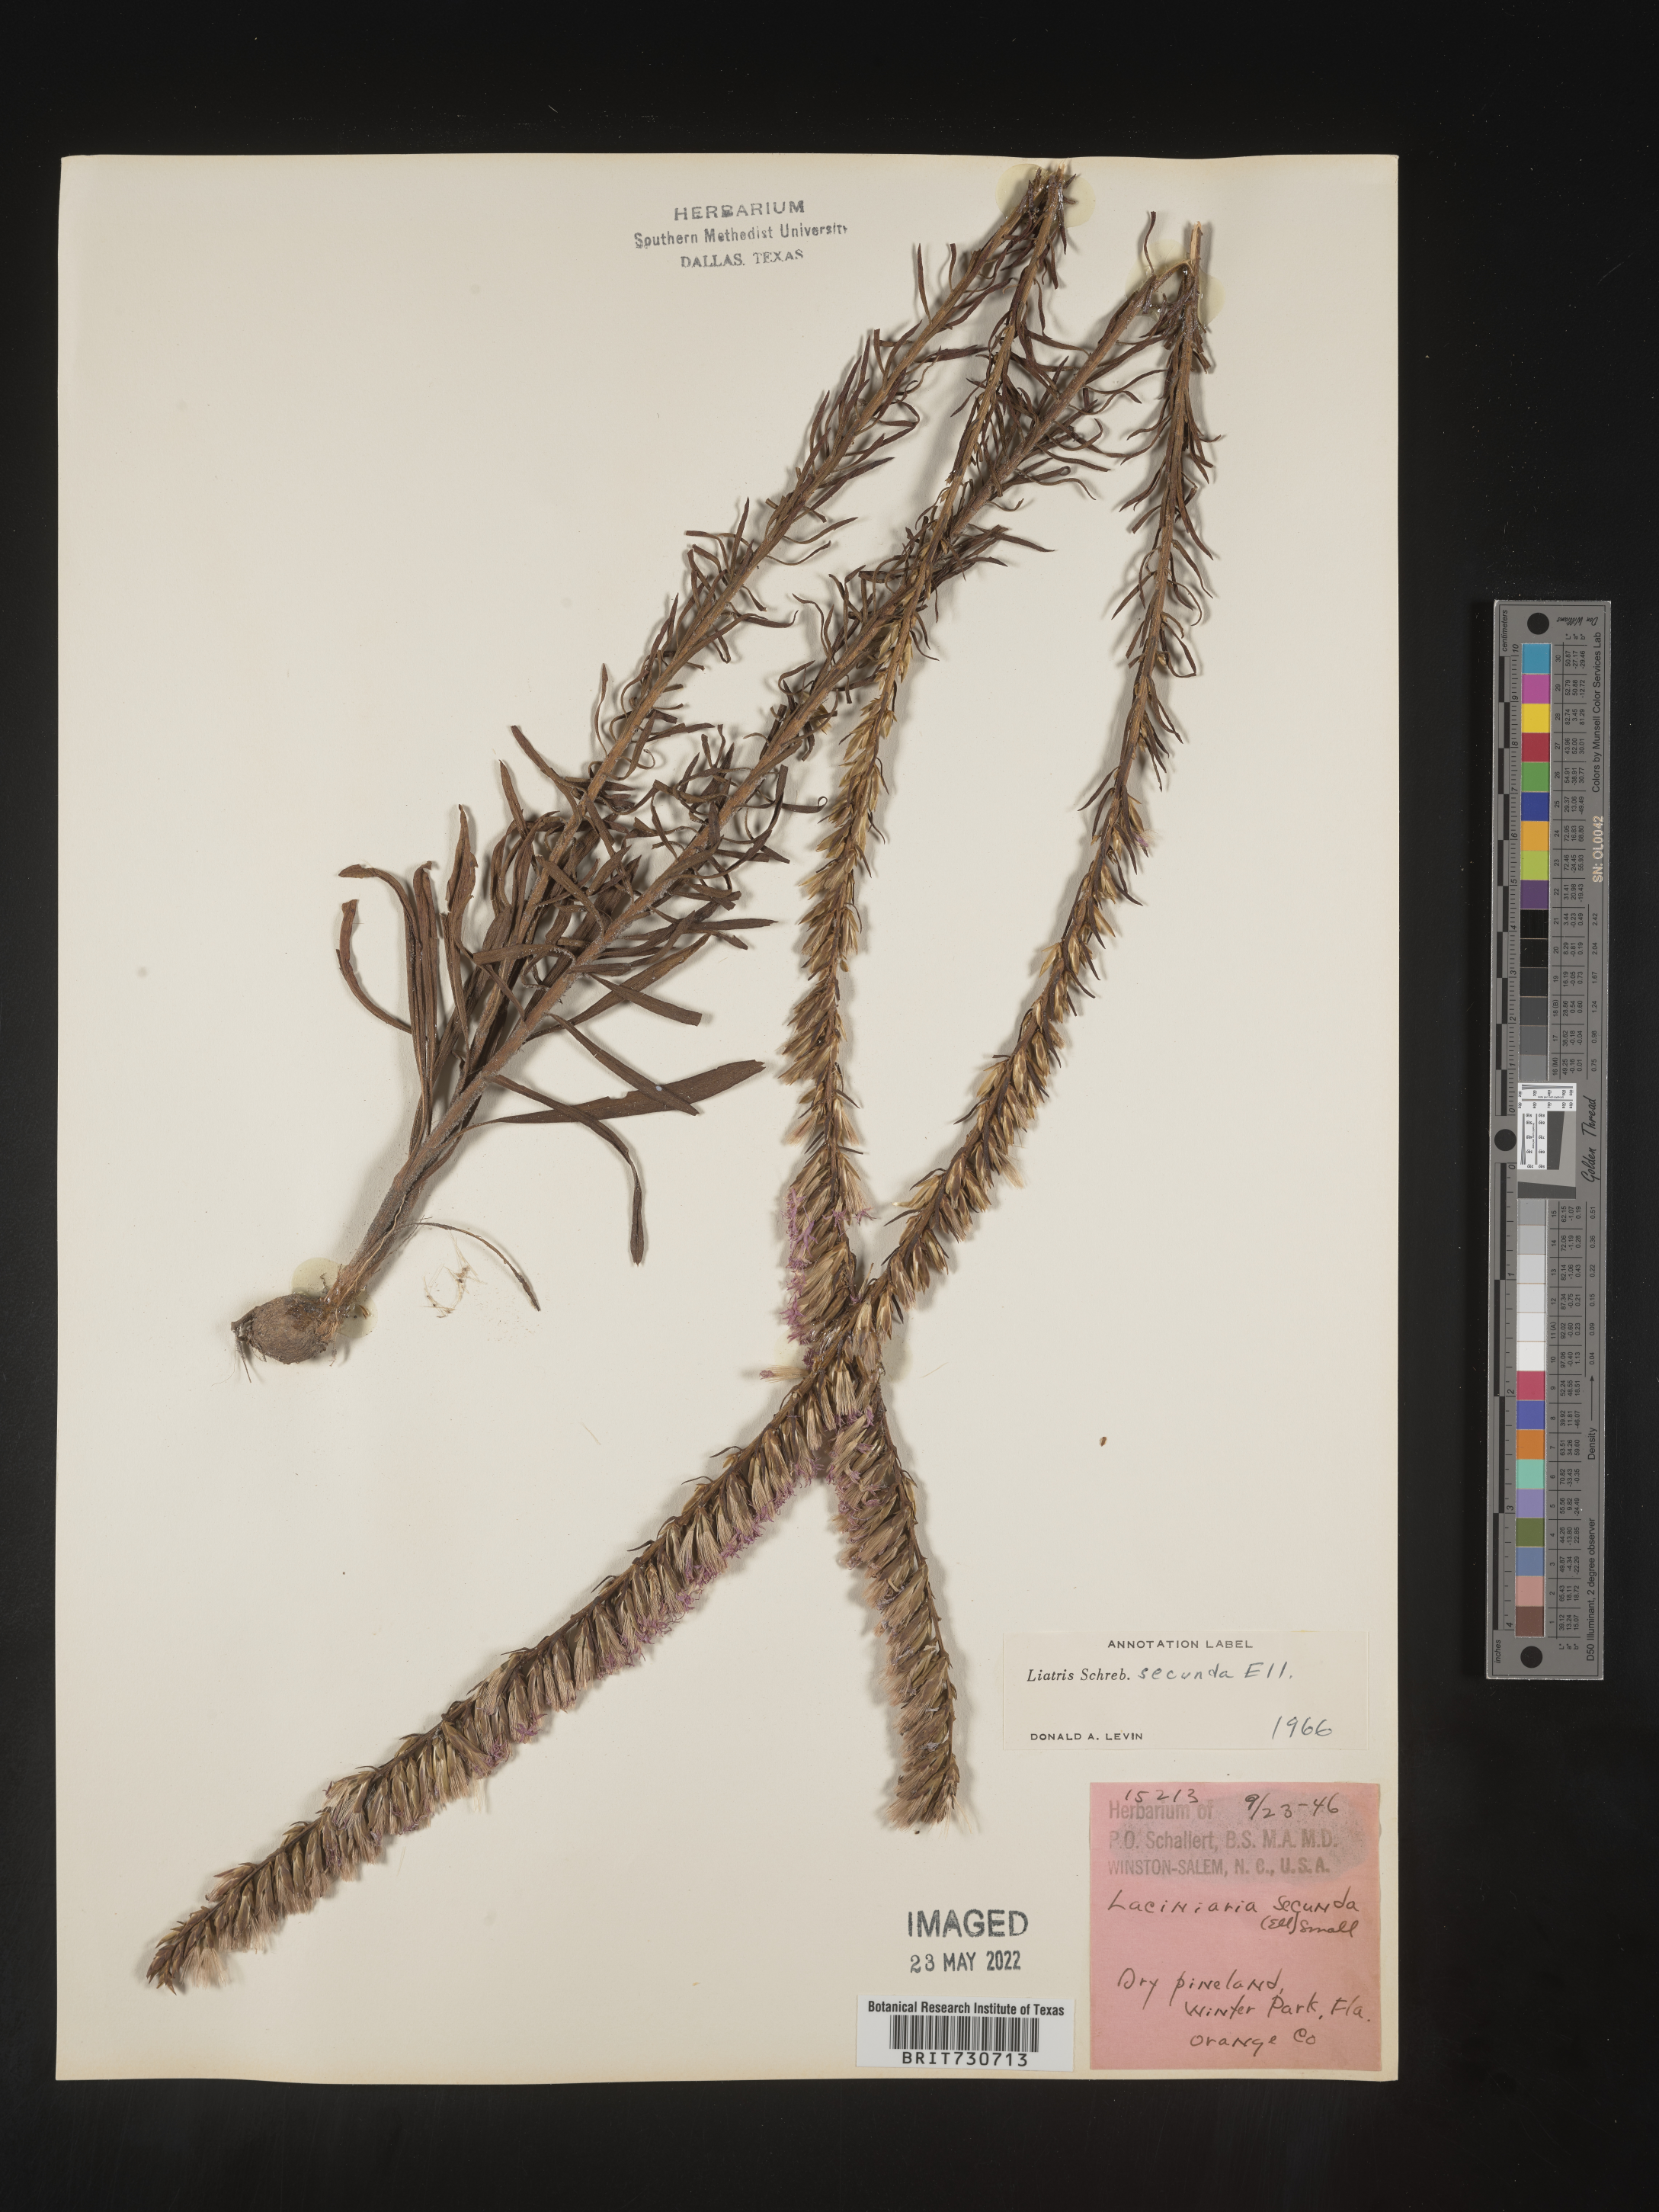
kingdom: Plantae
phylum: Tracheophyta
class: Magnoliopsida
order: Asterales
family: Asteraceae
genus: Liatris
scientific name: Liatris pauciflora
